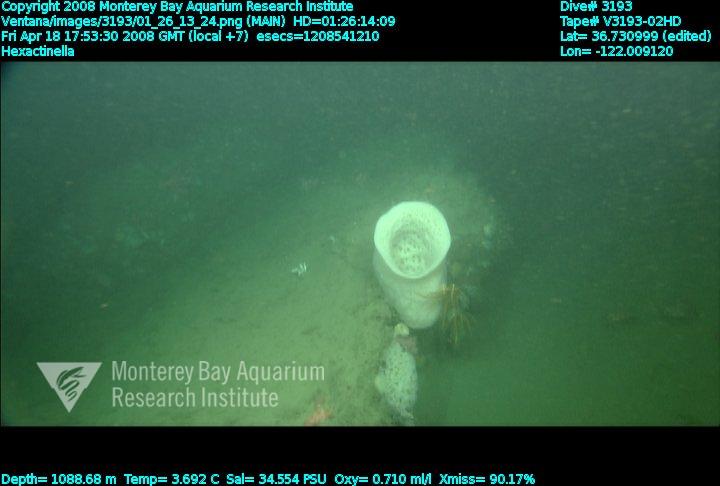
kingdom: Animalia
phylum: Porifera
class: Hexactinellida
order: Sceptrulophora
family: Tretodictyidae
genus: Hexactinella
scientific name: Hexactinella
